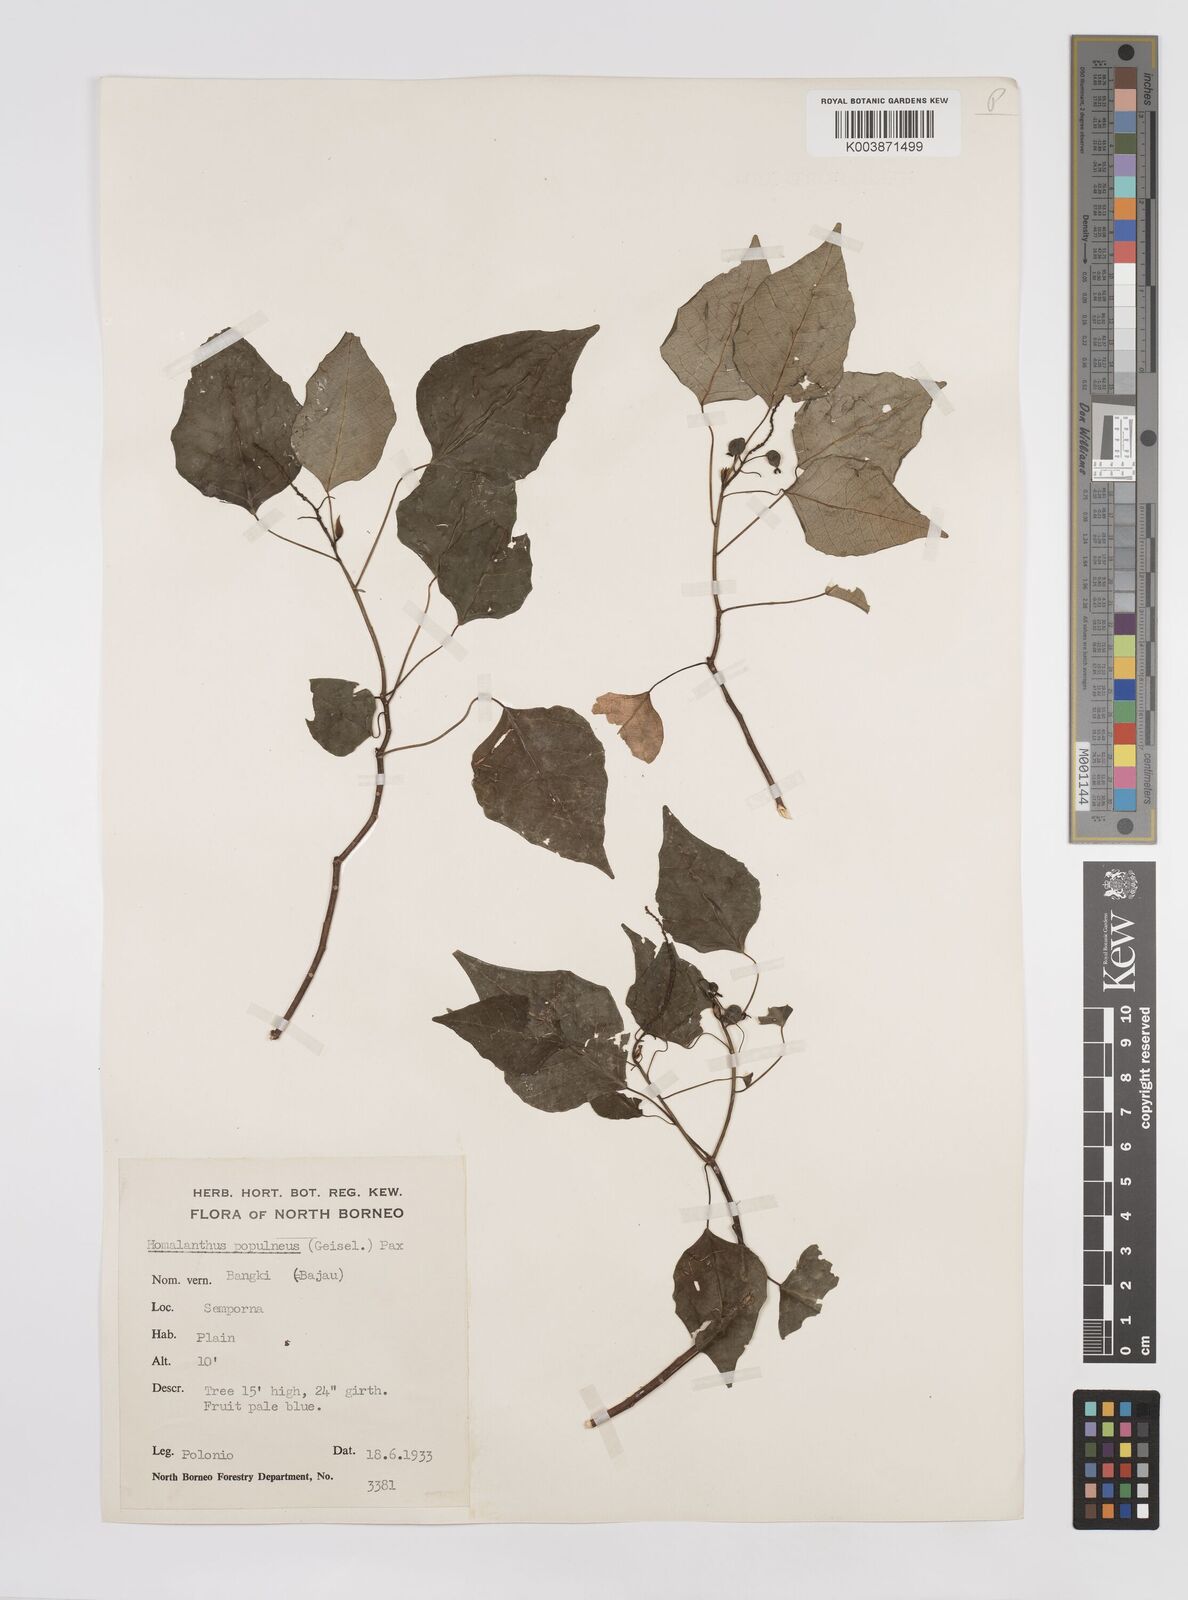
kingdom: Plantae
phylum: Tracheophyta
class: Magnoliopsida
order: Malpighiales
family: Euphorbiaceae
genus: Homalanthus
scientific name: Homalanthus populneus
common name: Spurge
